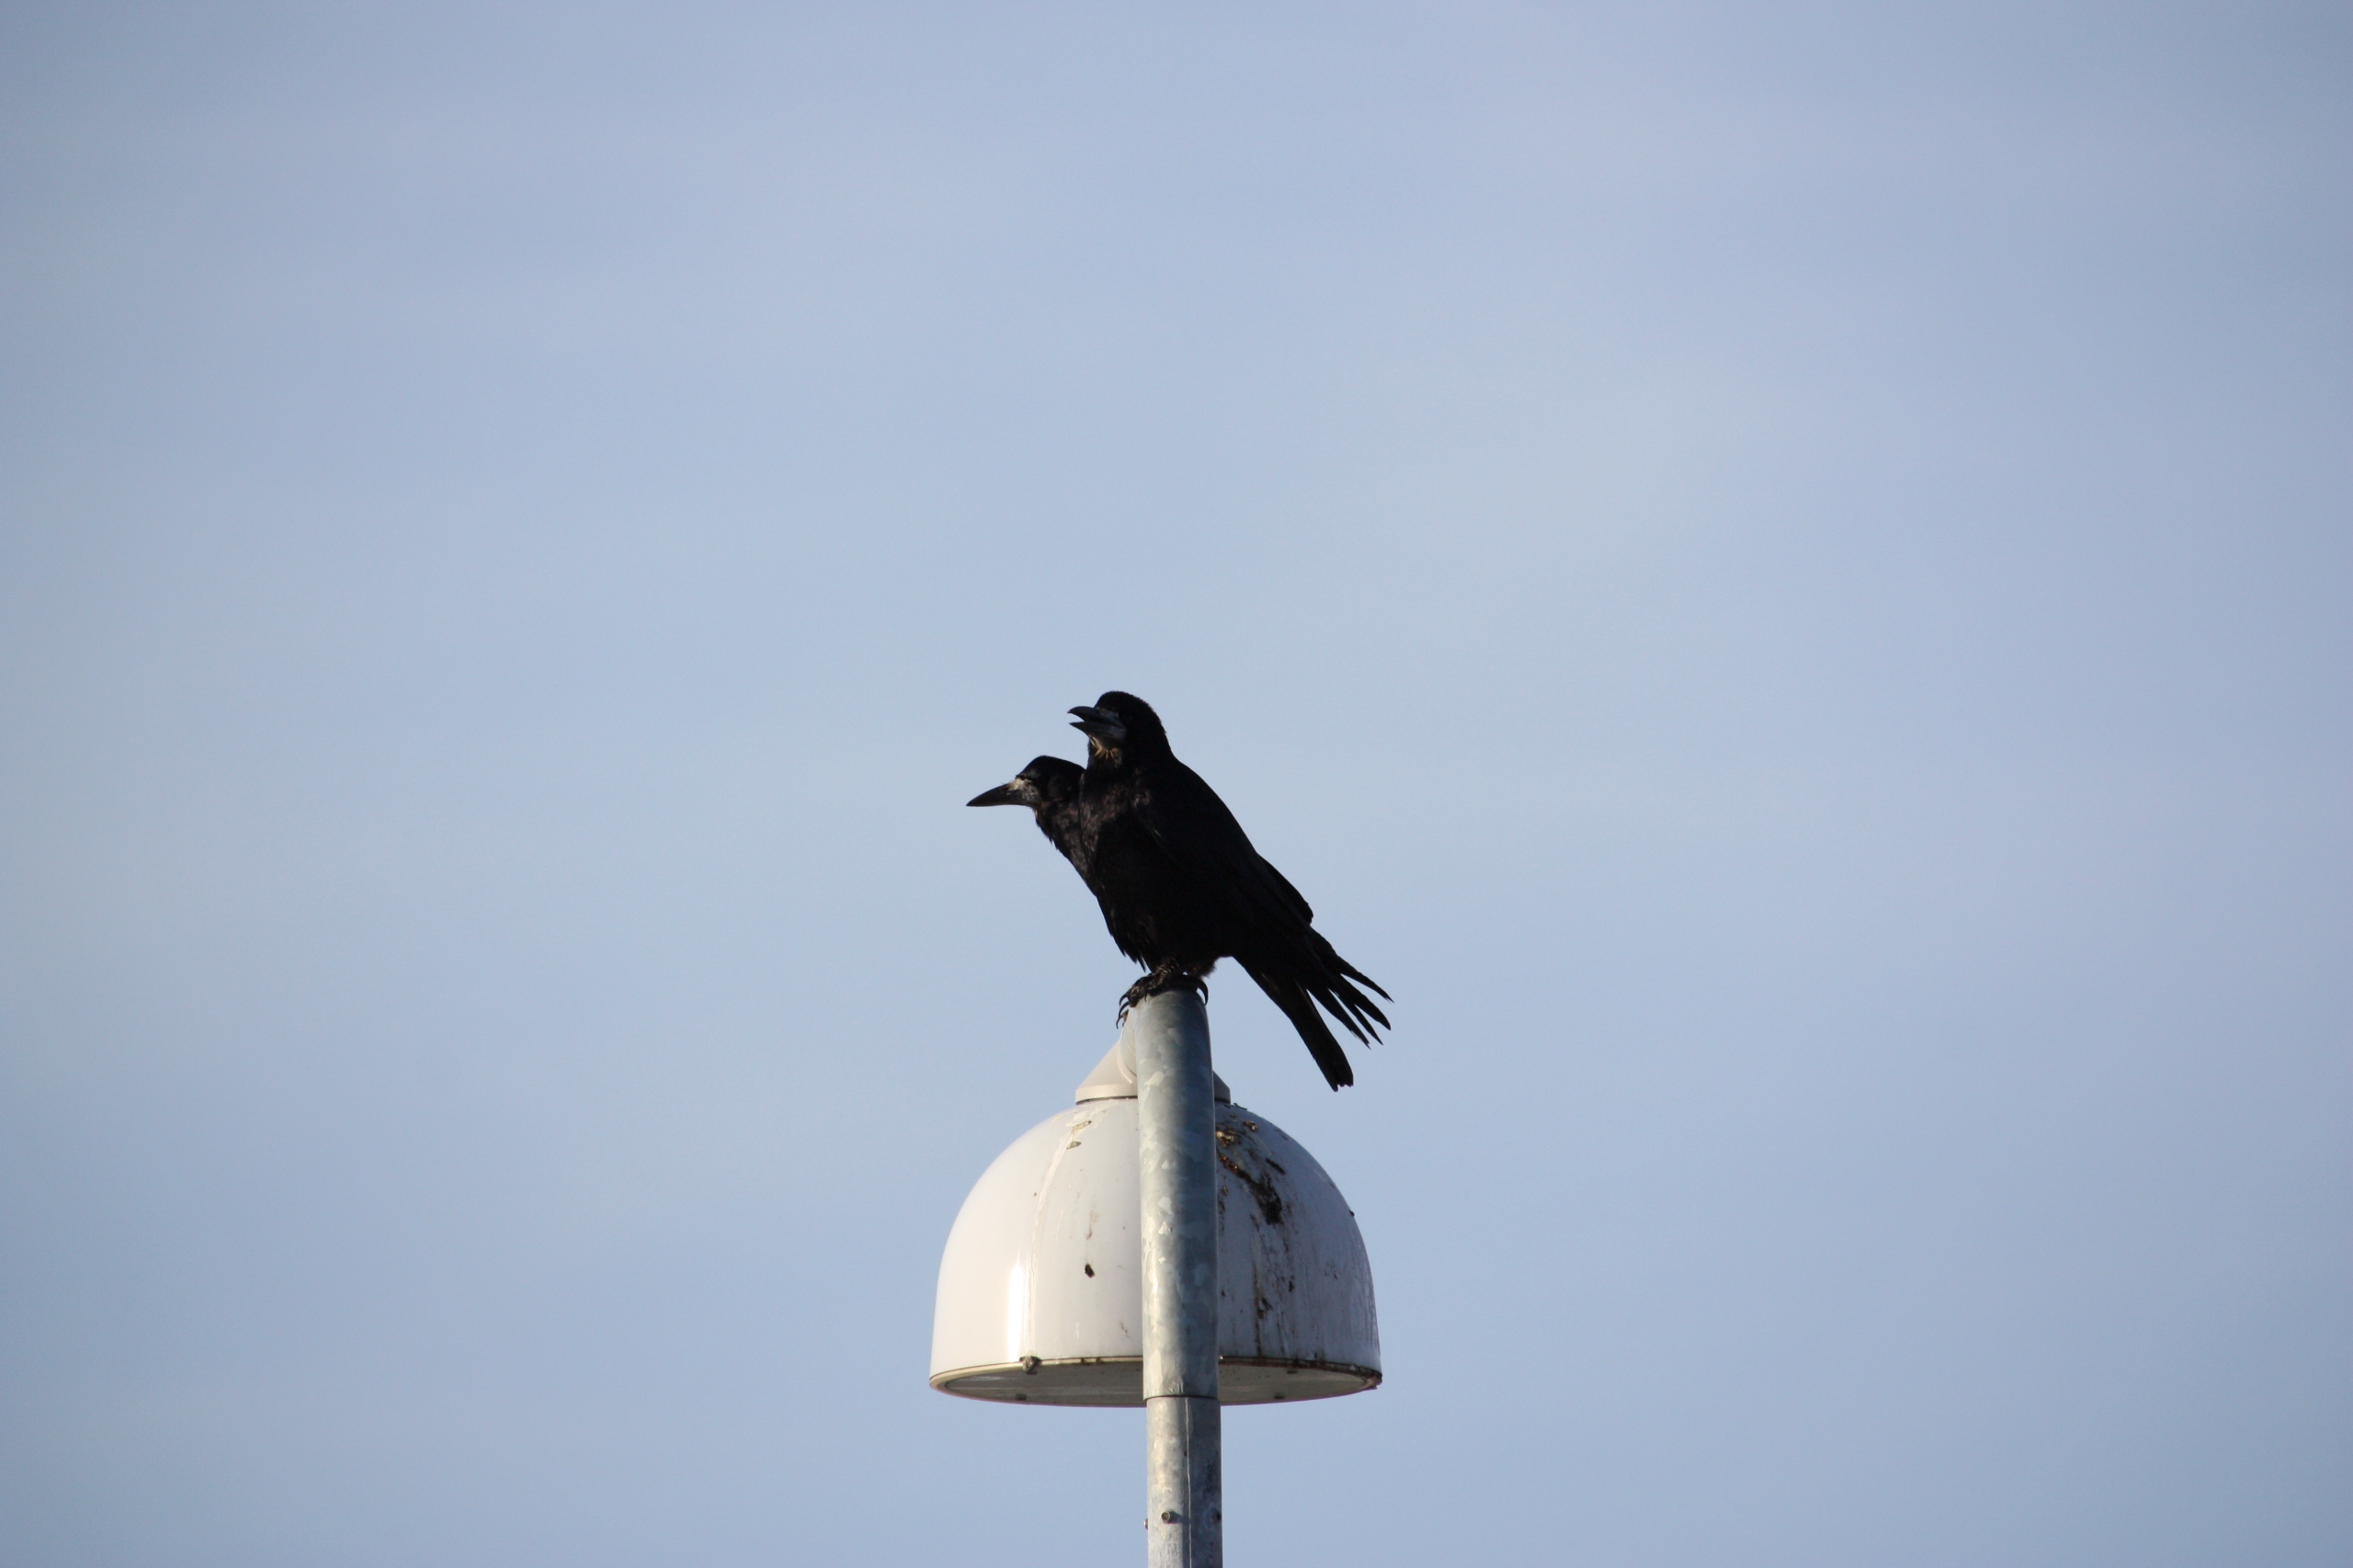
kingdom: Animalia
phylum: Chordata
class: Aves
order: Passeriformes
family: Corvidae
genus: Corvus
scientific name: Corvus frugilegus
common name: Råge
